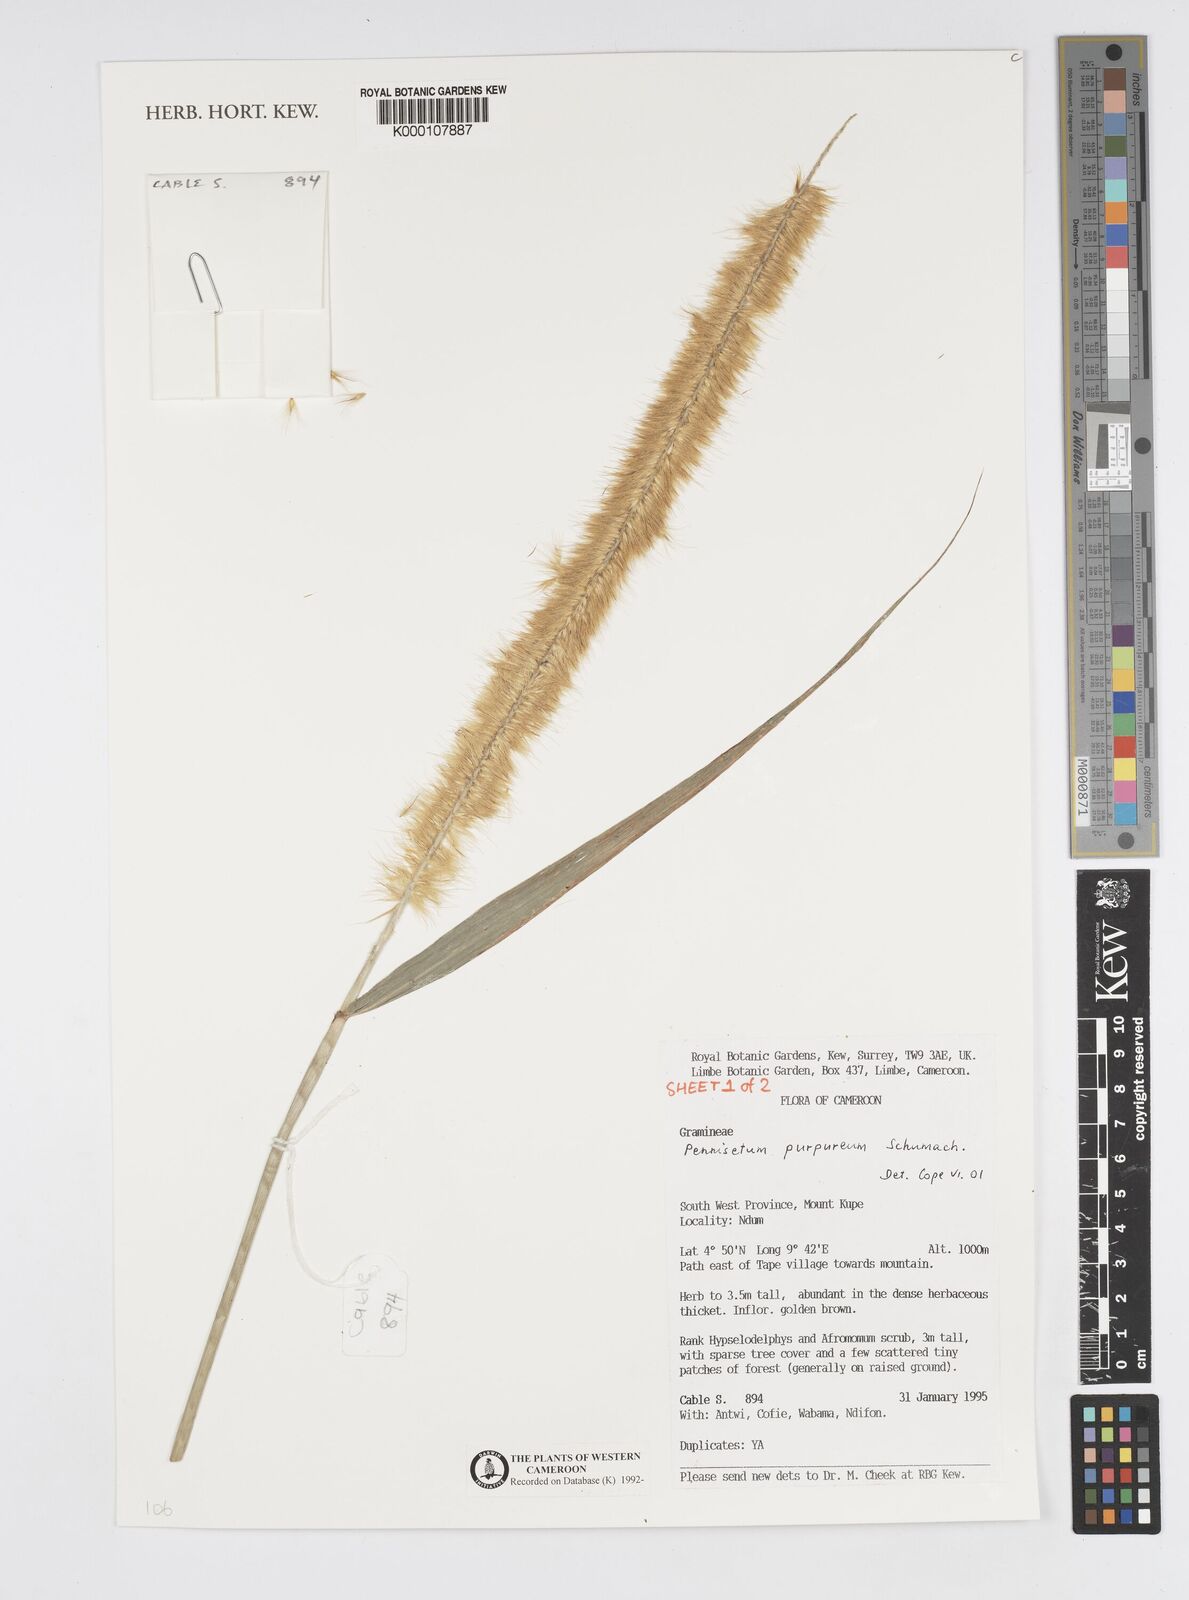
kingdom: Plantae
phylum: Tracheophyta
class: Liliopsida
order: Poales
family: Poaceae
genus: Cenchrus
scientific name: Cenchrus purpureus
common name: Elephant grass
